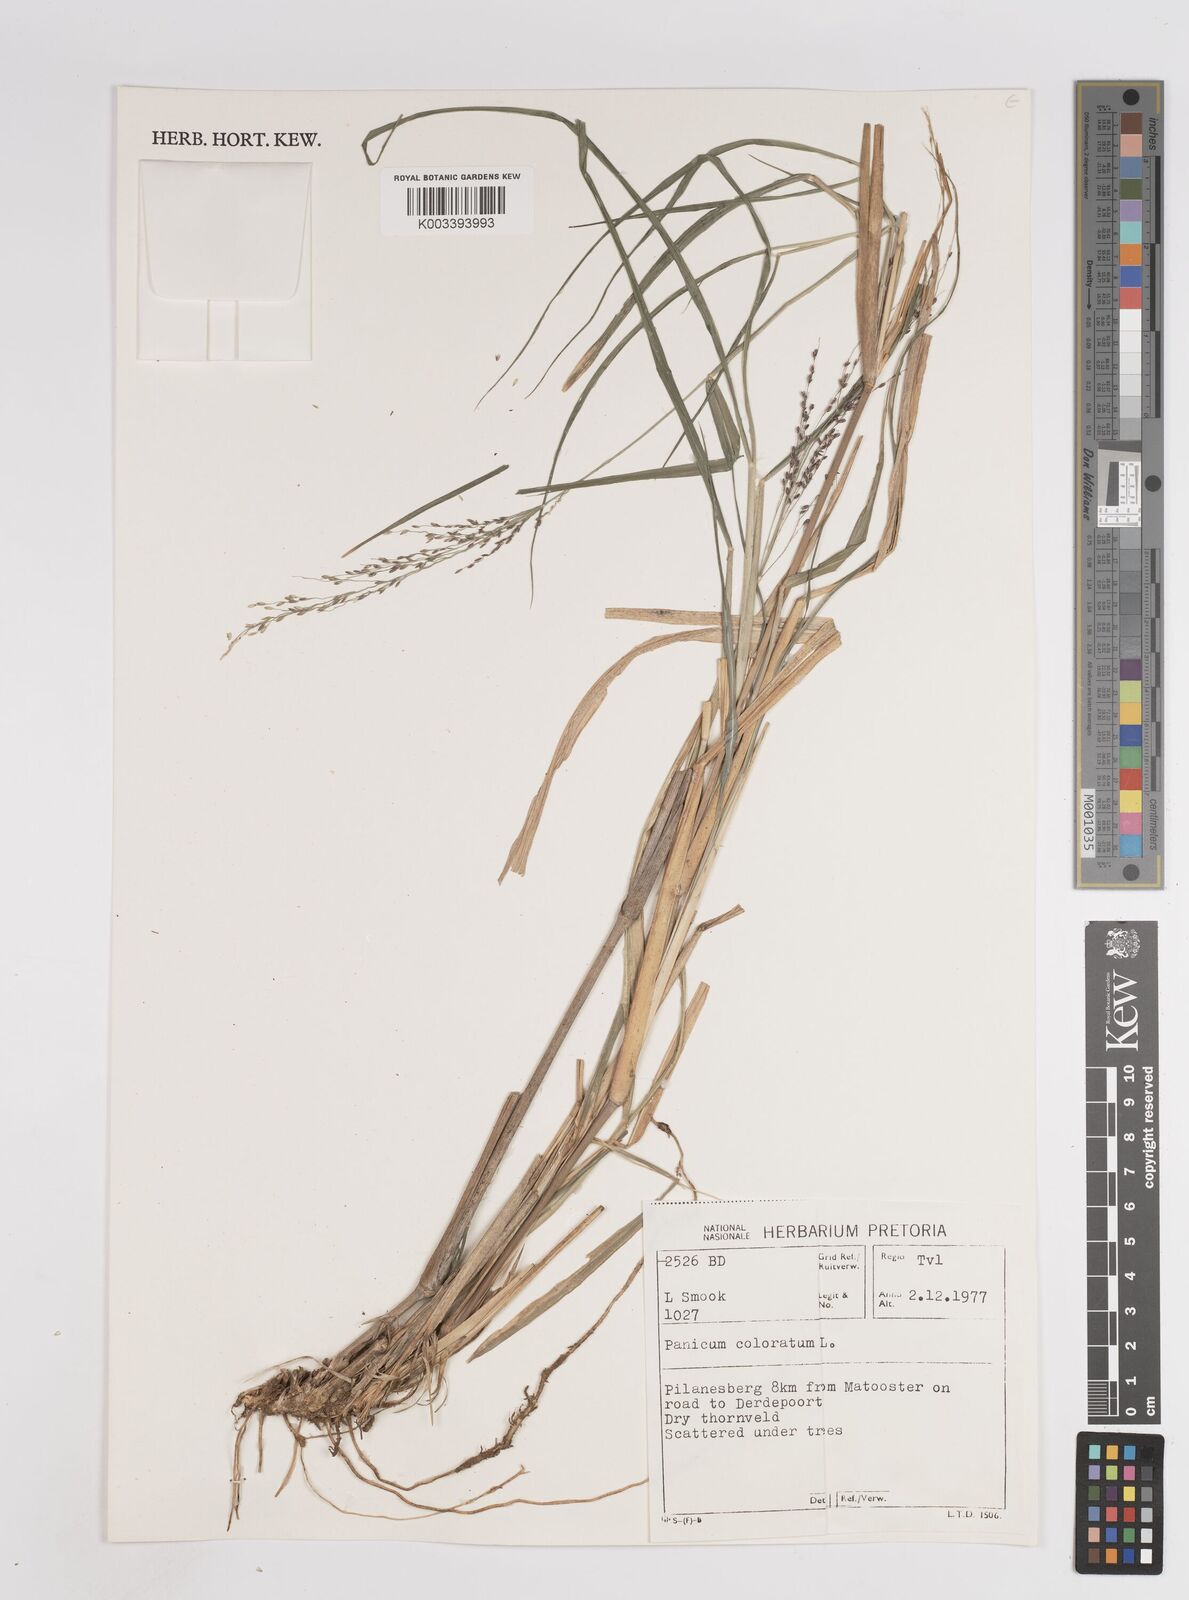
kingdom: Plantae
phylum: Tracheophyta
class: Liliopsida
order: Poales
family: Poaceae
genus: Panicum
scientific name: Panicum coloratum
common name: Kleingrass
